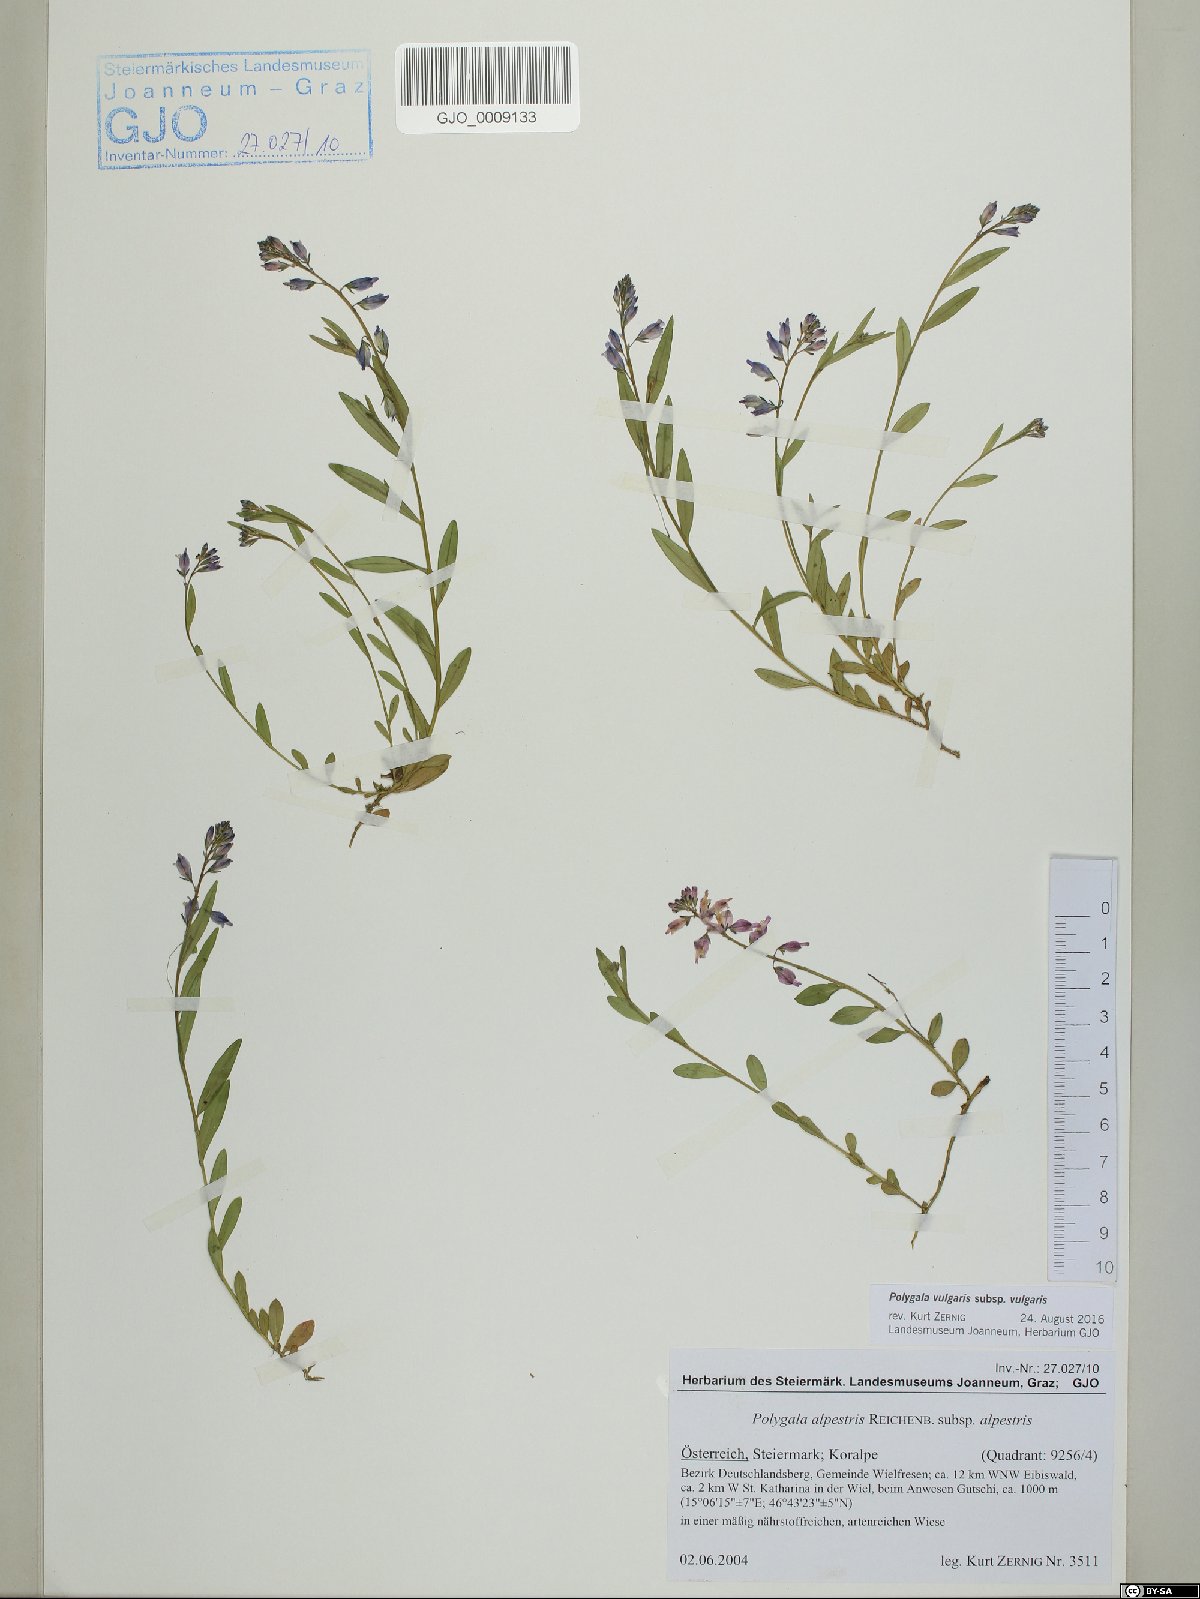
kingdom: Plantae
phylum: Tracheophyta
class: Magnoliopsida
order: Fabales
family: Polygalaceae
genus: Polygala
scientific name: Polygala vulgaris
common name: Common milkwort
